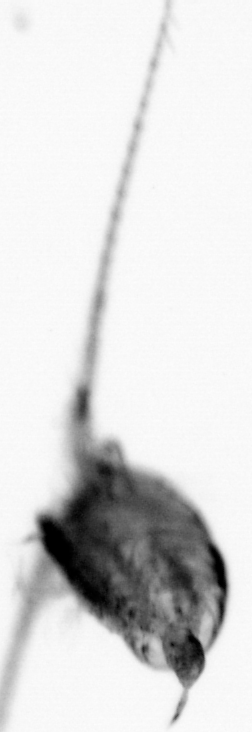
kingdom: Animalia
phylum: Arthropoda
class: Copepoda
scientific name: Copepoda
